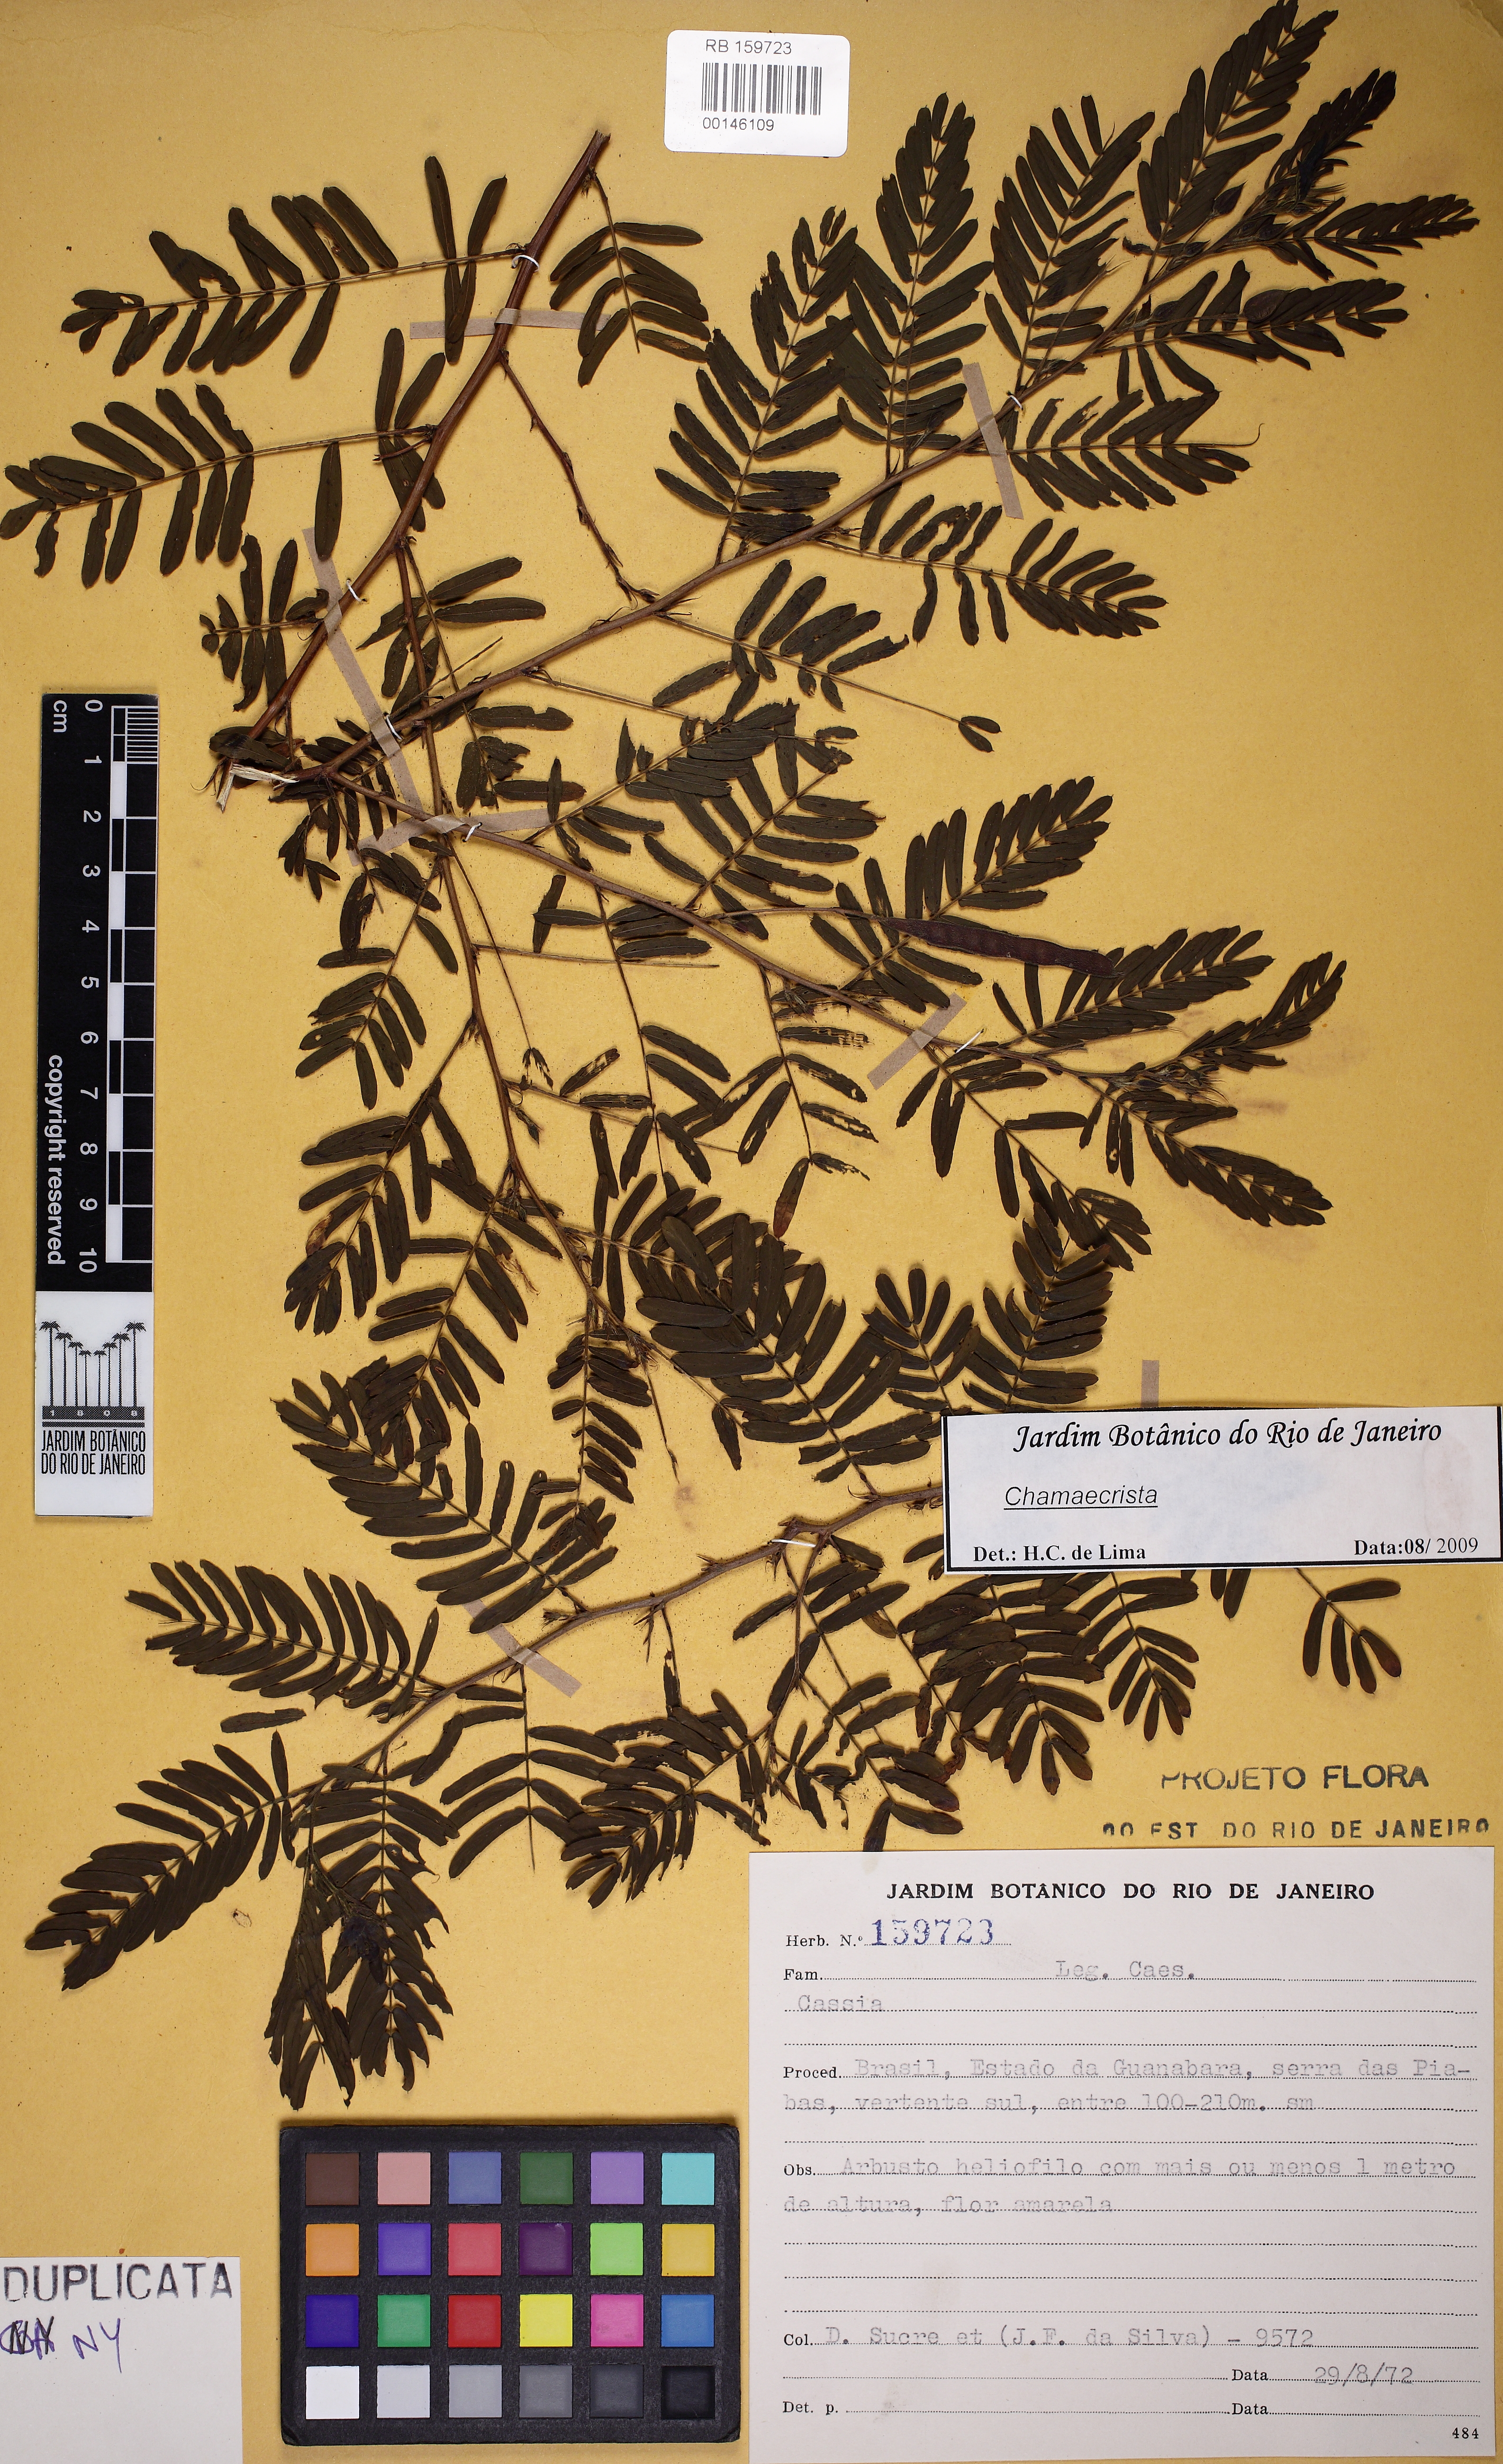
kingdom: Plantae
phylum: Tracheophyta
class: Magnoliopsida
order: Fabales
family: Fabaceae
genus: Chamaecrista
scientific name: Chamaecrista
